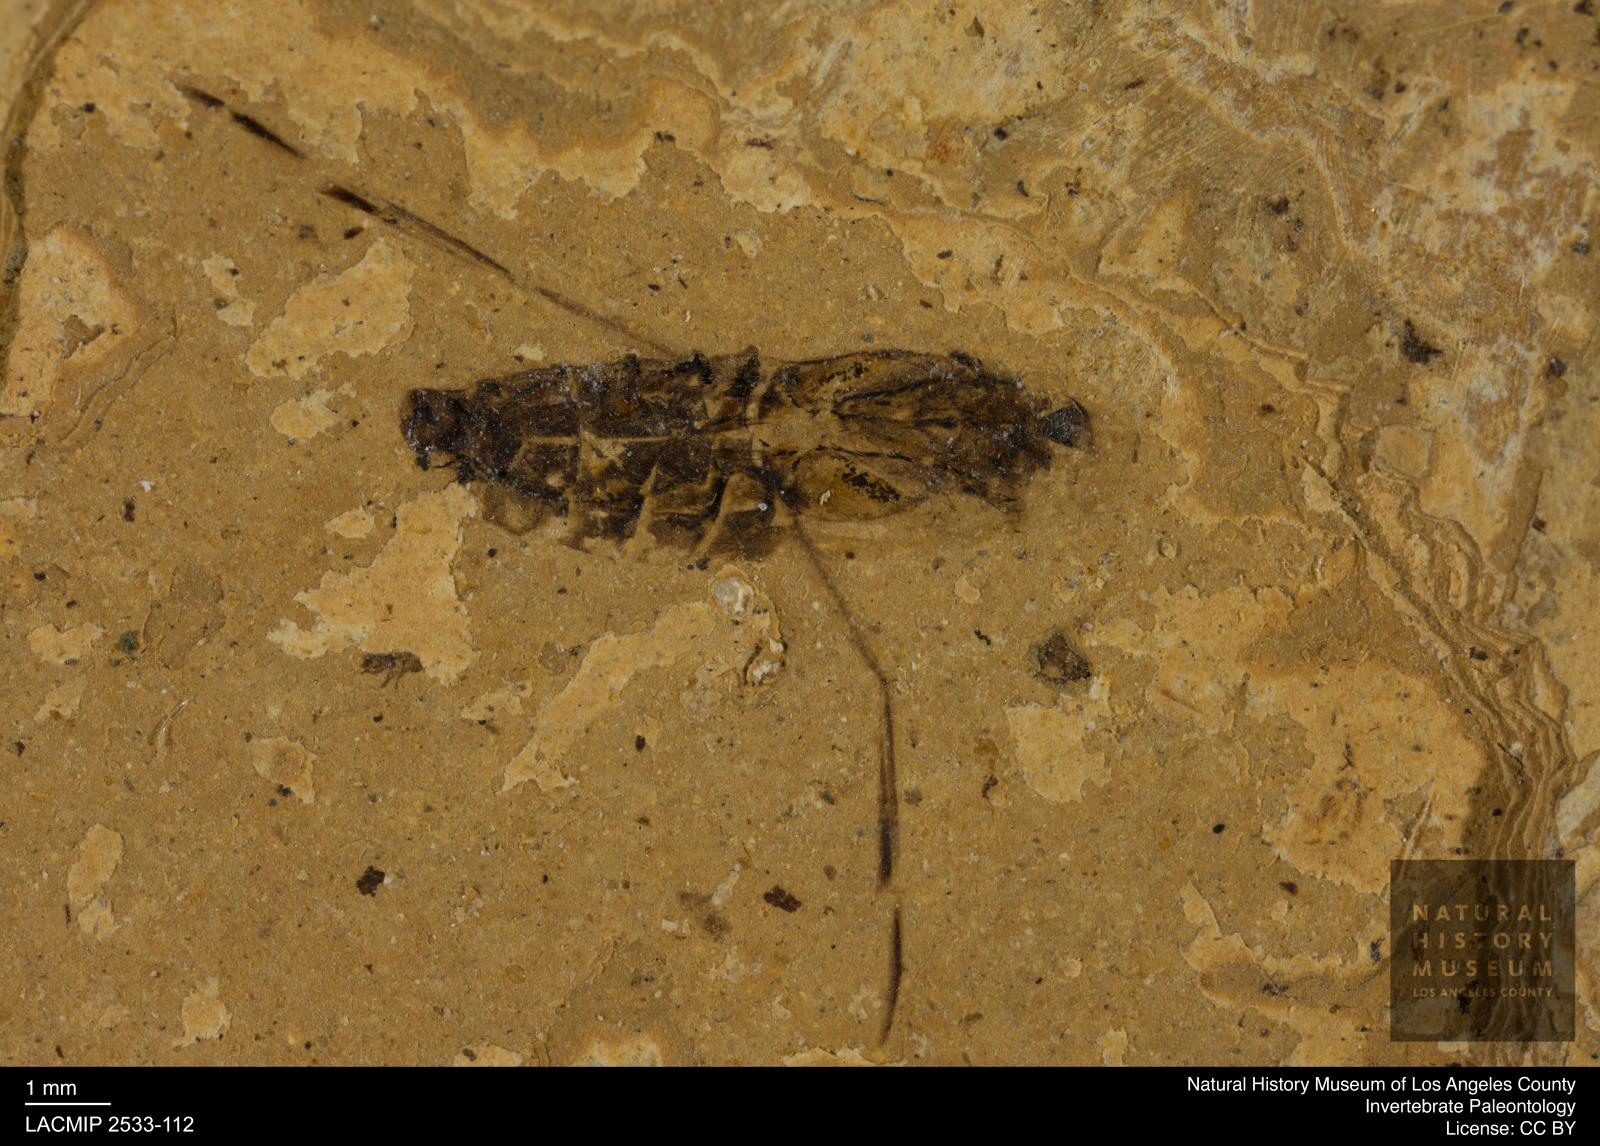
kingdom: Animalia
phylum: Arthropoda
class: Insecta
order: Hemiptera
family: Notonectidae
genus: Anisops
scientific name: Anisops Notonecta heydeni
